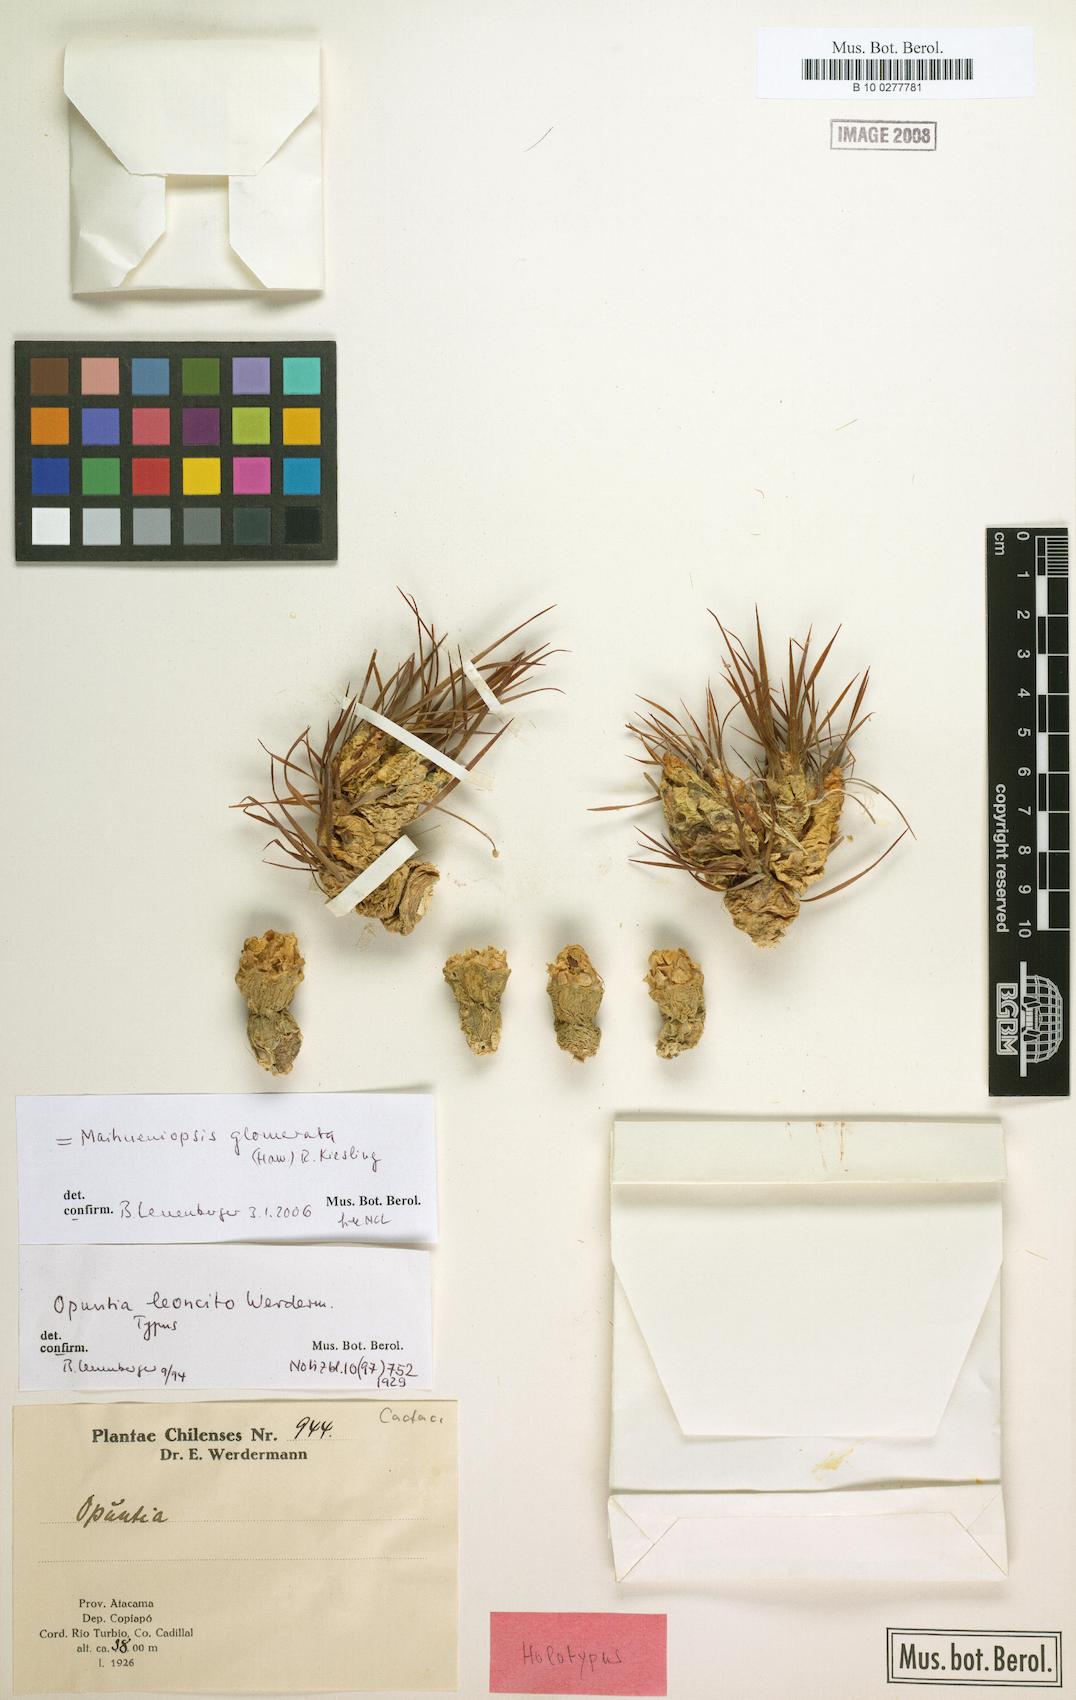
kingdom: Plantae
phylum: Tracheophyta
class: Magnoliopsida
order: Caryophyllales
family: Cactaceae
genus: Maihueniopsis
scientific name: Maihueniopsis glomerata
